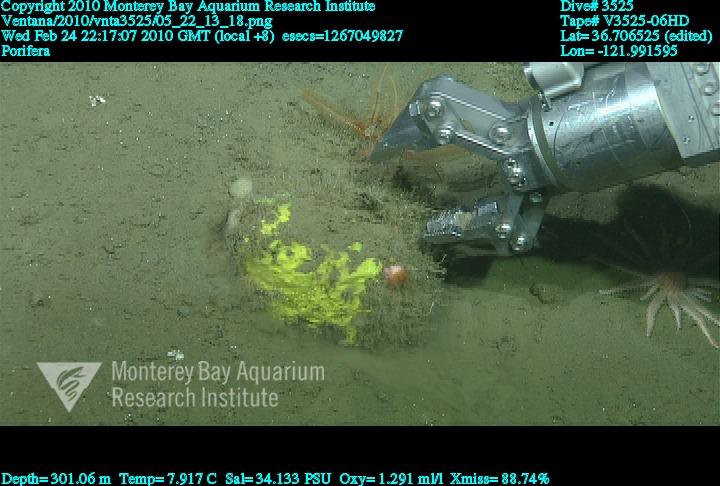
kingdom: Animalia
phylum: Porifera
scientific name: Porifera
